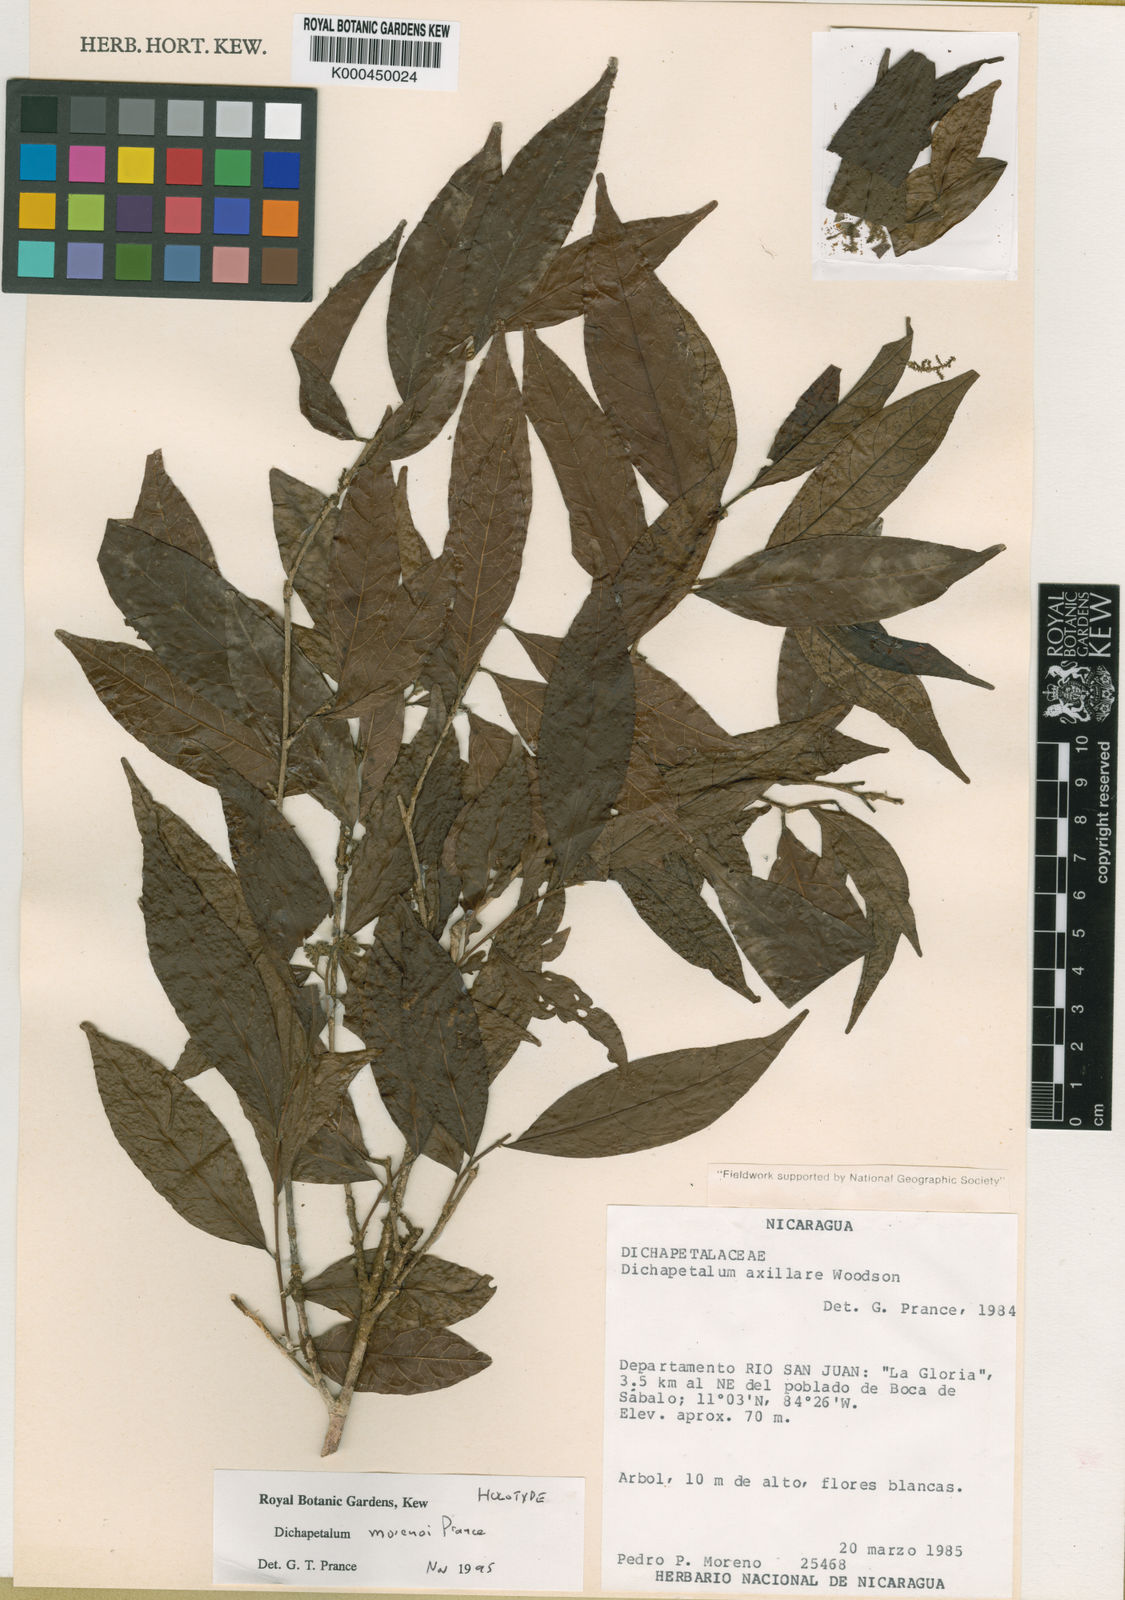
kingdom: Plantae
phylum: Tracheophyta
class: Magnoliopsida
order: Malpighiales
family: Dichapetalaceae
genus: Dichapetalum
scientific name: Dichapetalum morenoi
